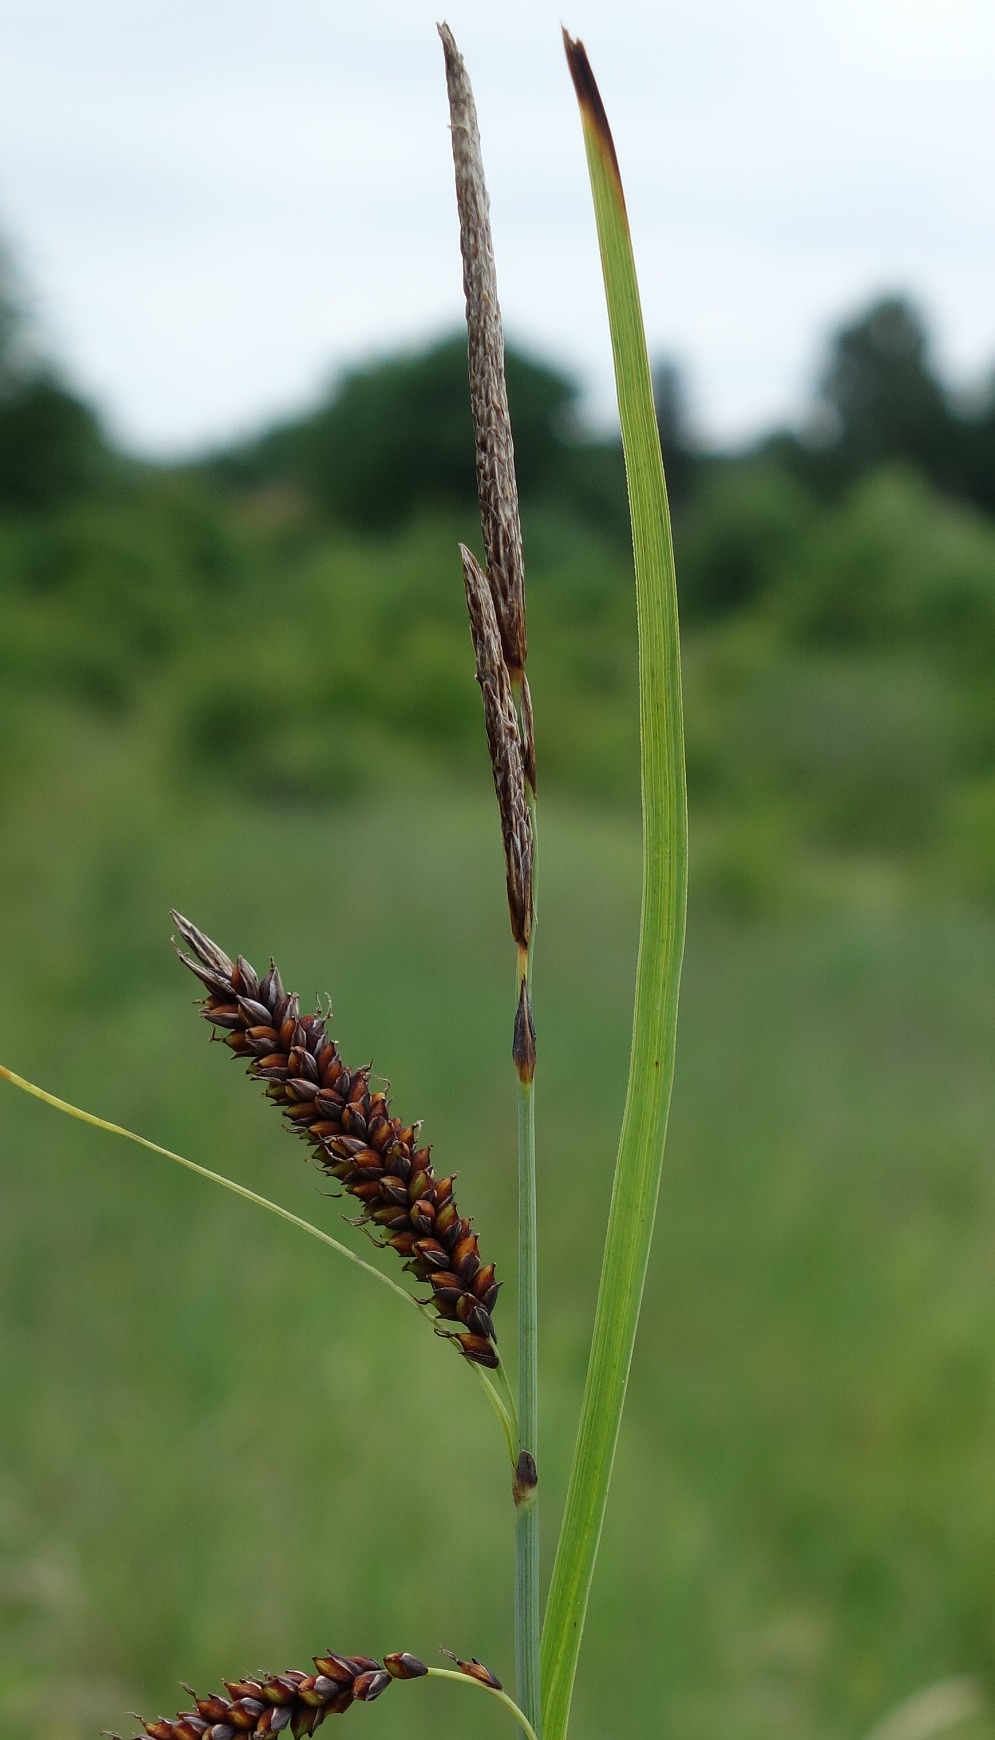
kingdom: Plantae
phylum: Tracheophyta
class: Liliopsida
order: Poales
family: Cyperaceae
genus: Carex
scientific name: Carex flacca
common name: Blågrøn star
